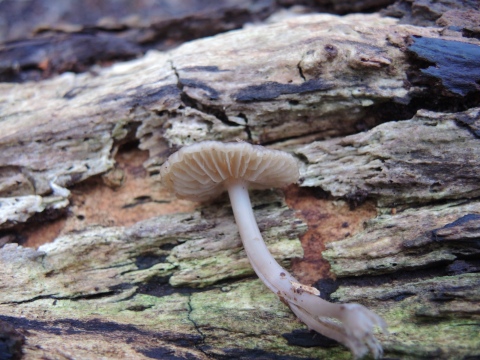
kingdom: Fungi
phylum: Basidiomycota
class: Agaricomycetes
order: Agaricales
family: Mycenaceae
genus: Mycena
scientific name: Mycena galericulata
